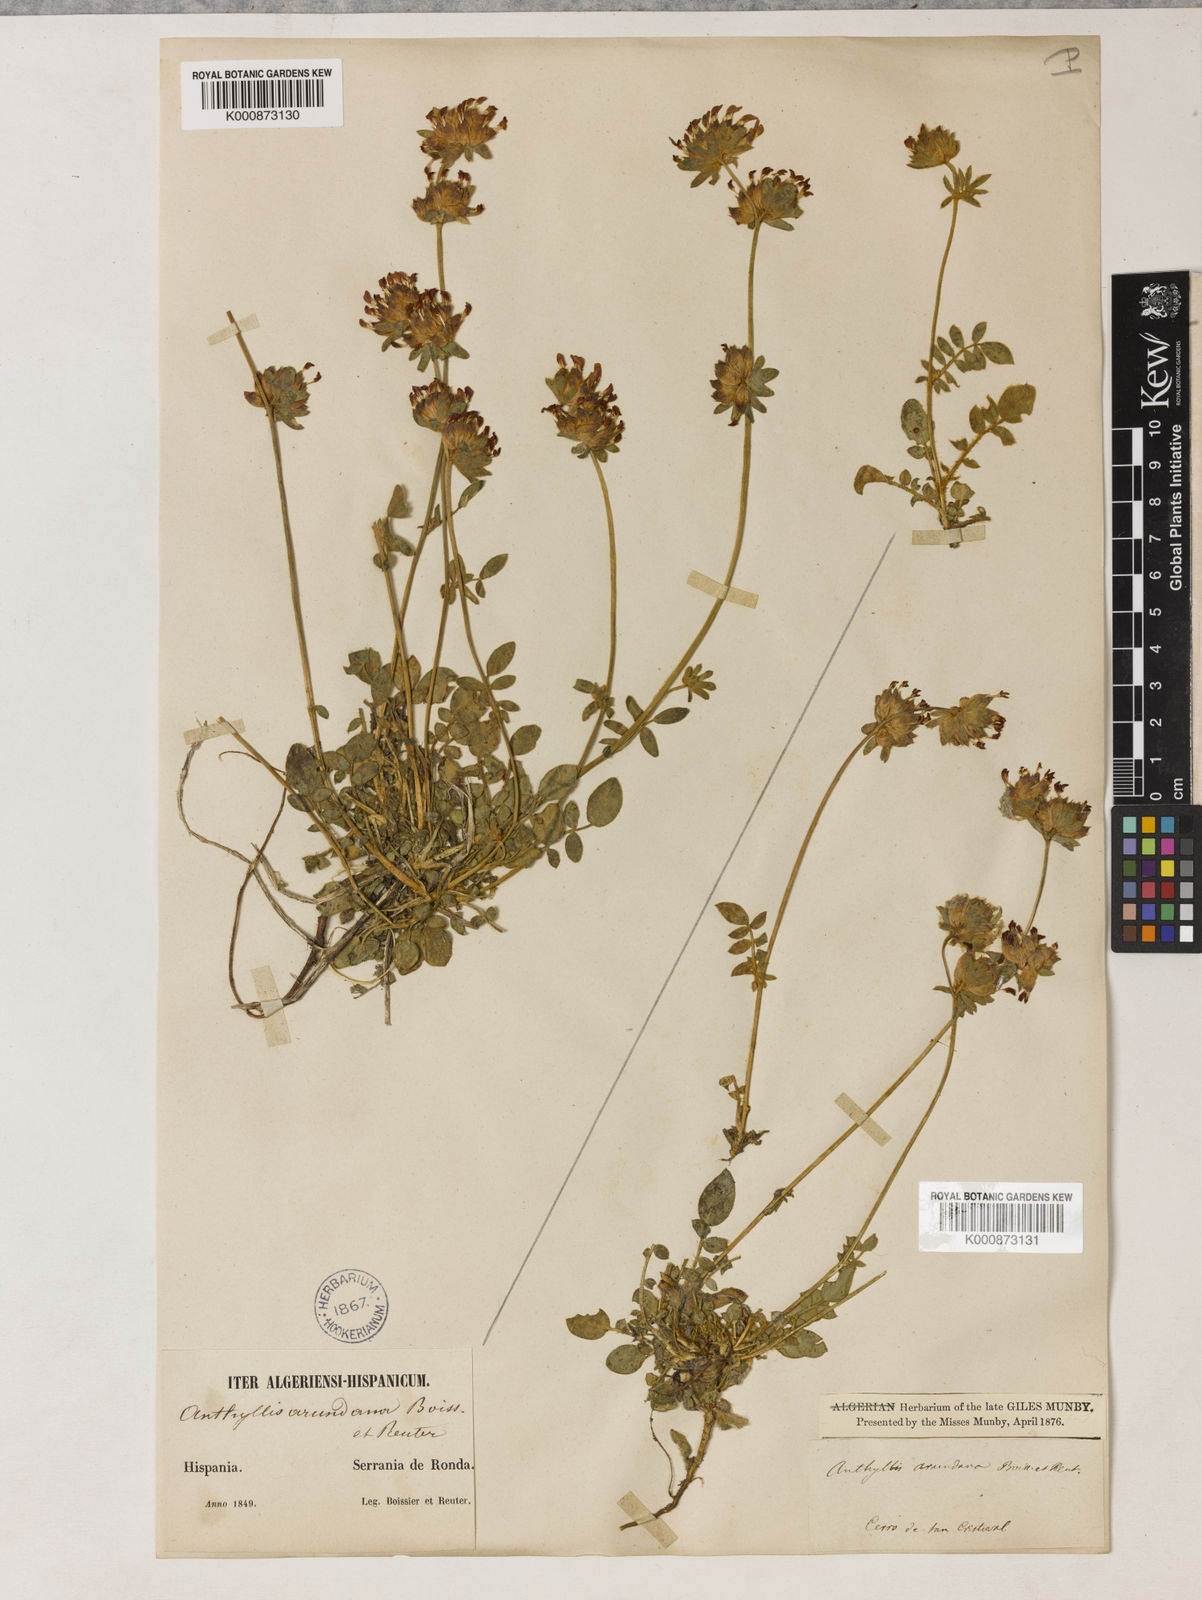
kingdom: Plantae
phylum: Tracheophyta
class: Magnoliopsida
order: Fabales
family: Fabaceae
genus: Anthyllis
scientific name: Anthyllis vulneraria
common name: Kidney vetch
